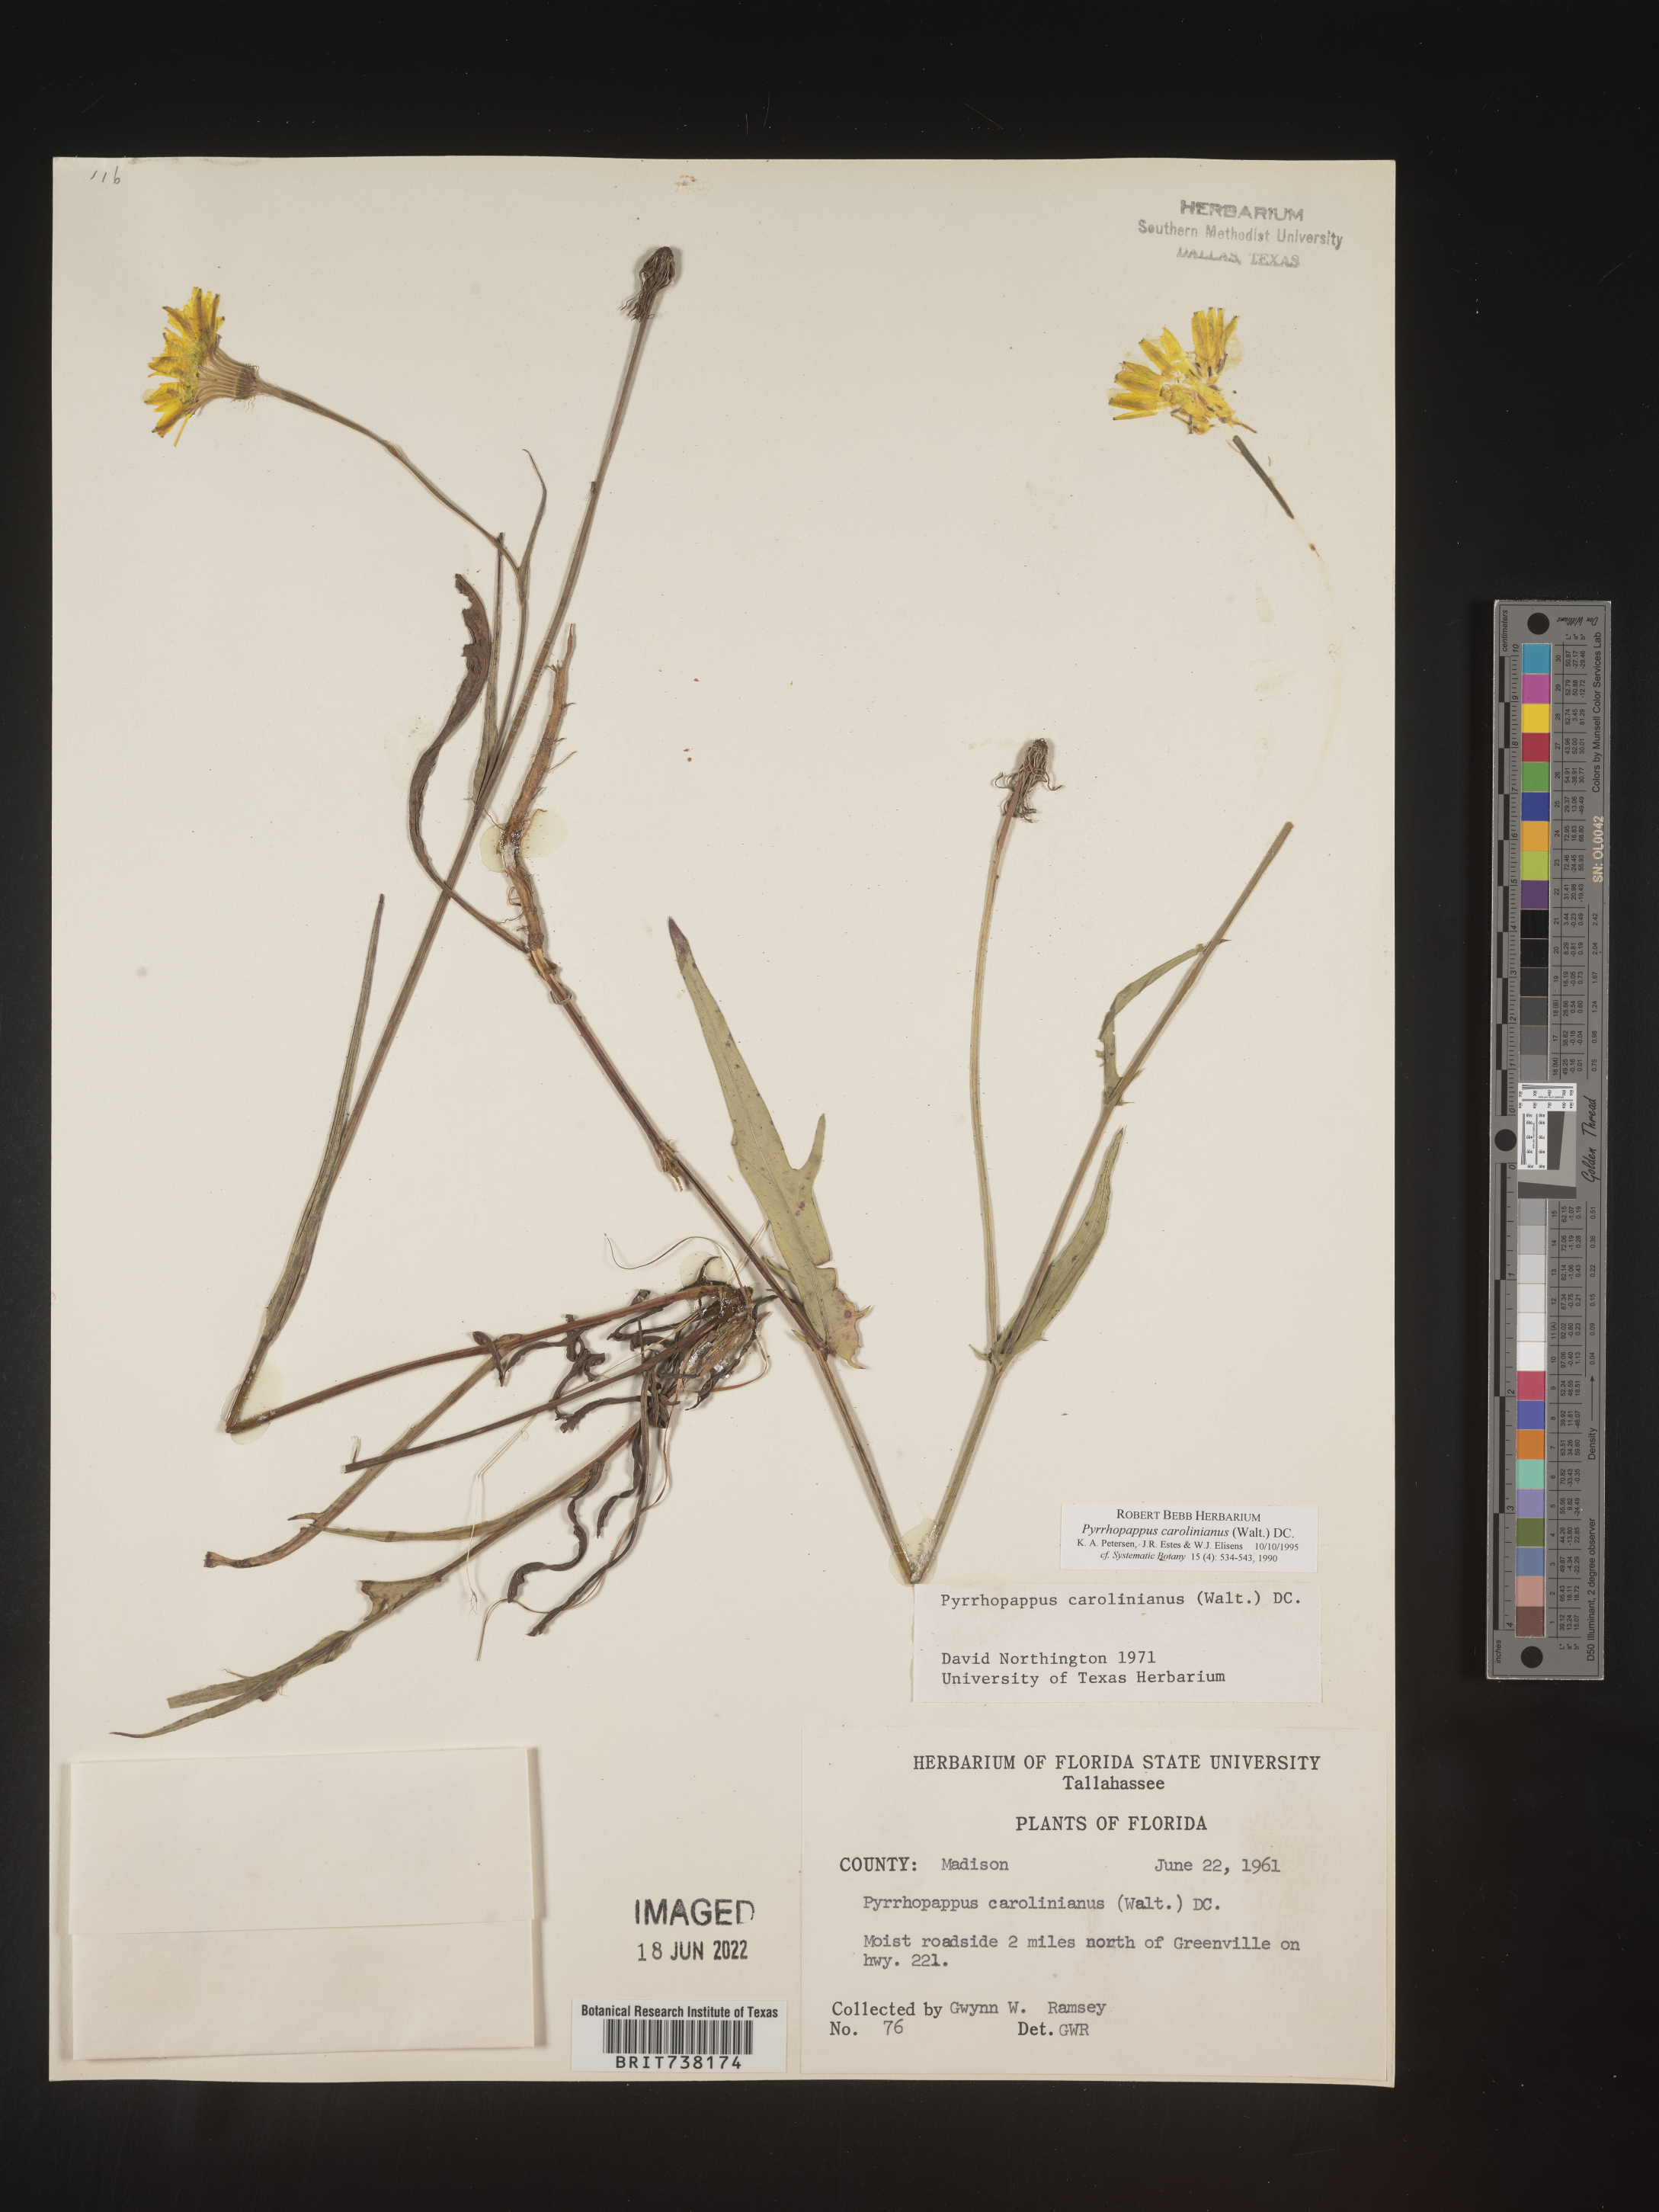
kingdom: Plantae
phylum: Tracheophyta
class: Magnoliopsida
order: Asterales
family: Asteraceae
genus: Pyrrhopappus
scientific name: Pyrrhopappus carolinianus
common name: Carolina desert-chicory
